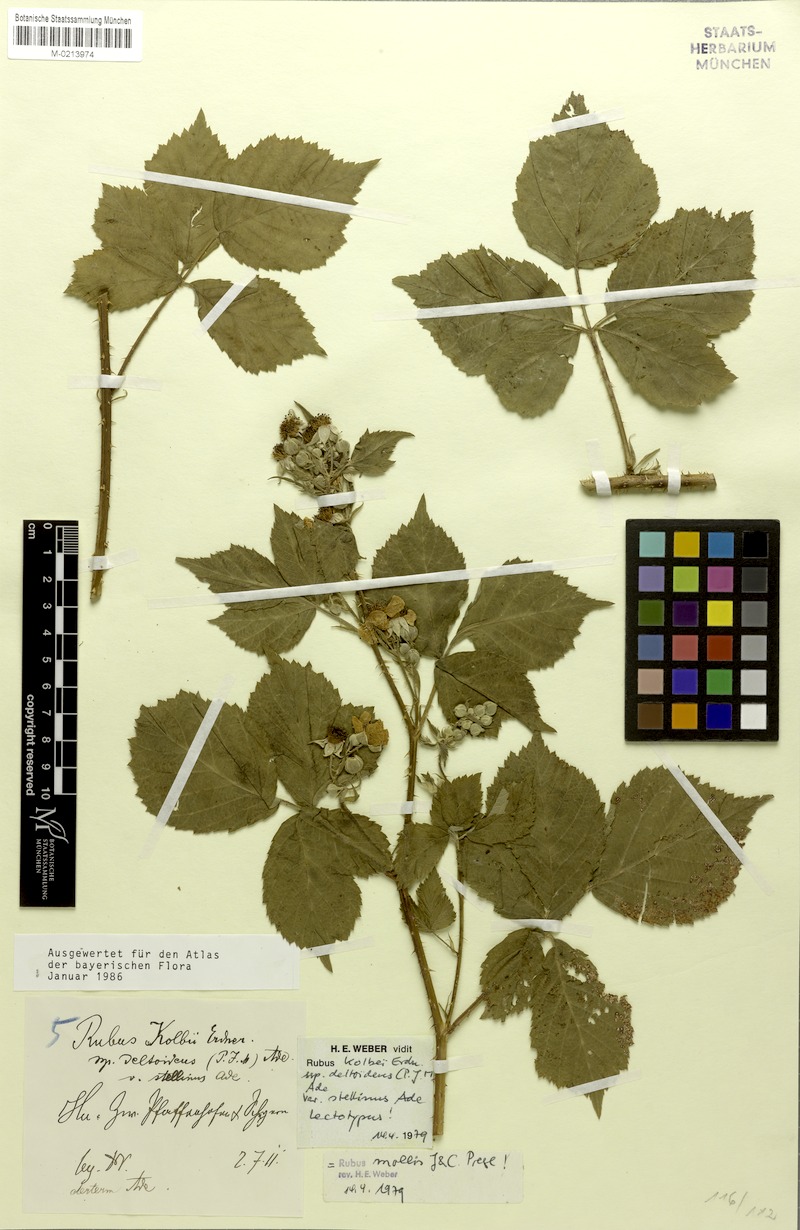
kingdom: Plantae
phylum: Tracheophyta
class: Magnoliopsida
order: Rosales
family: Rosaceae
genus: Rubus
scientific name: Rubus mollis
